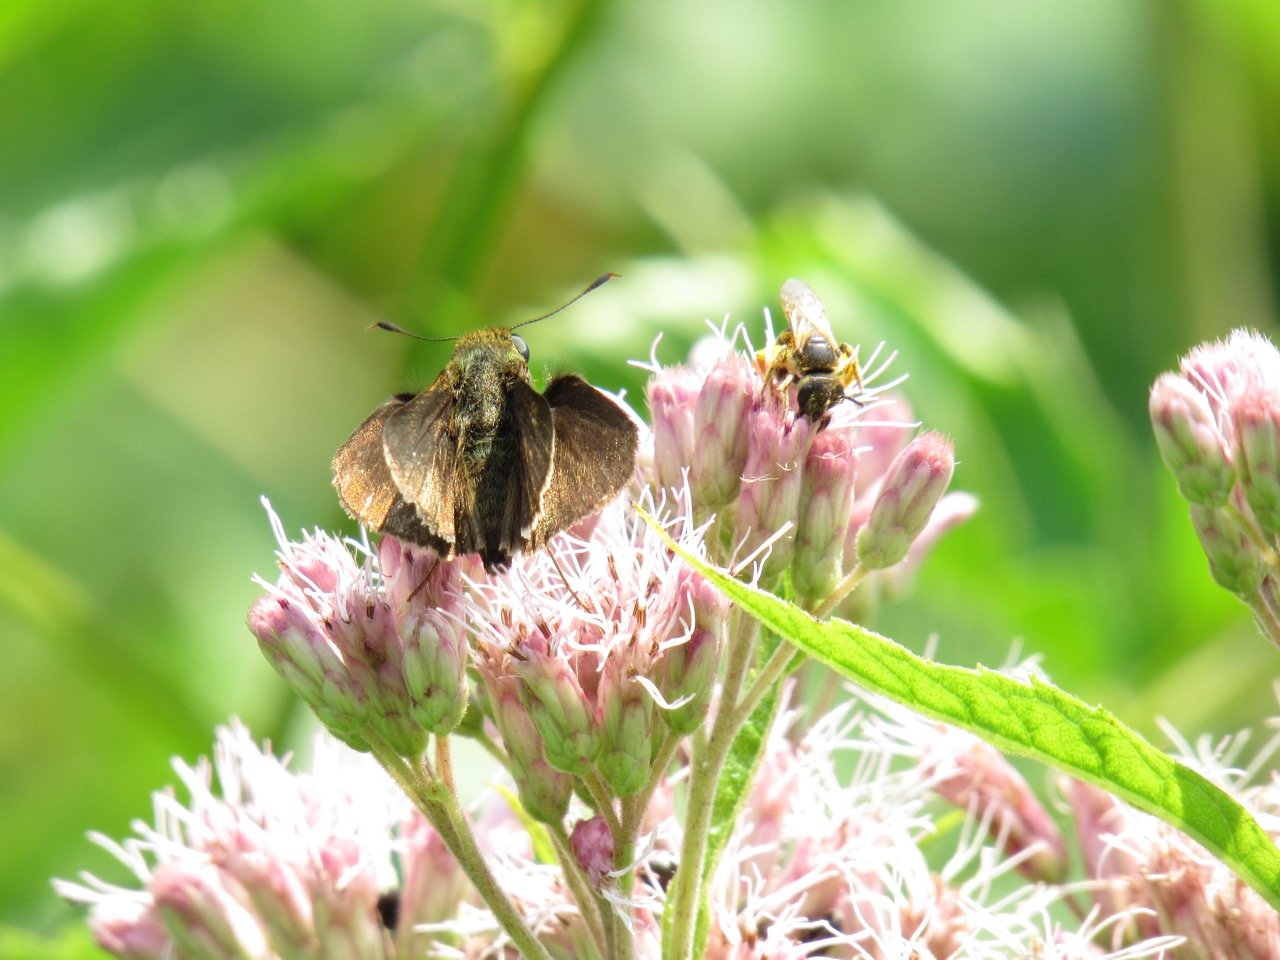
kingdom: Animalia
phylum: Arthropoda
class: Insecta
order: Lepidoptera
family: Hesperiidae
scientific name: Hesperiidae
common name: Skippers
